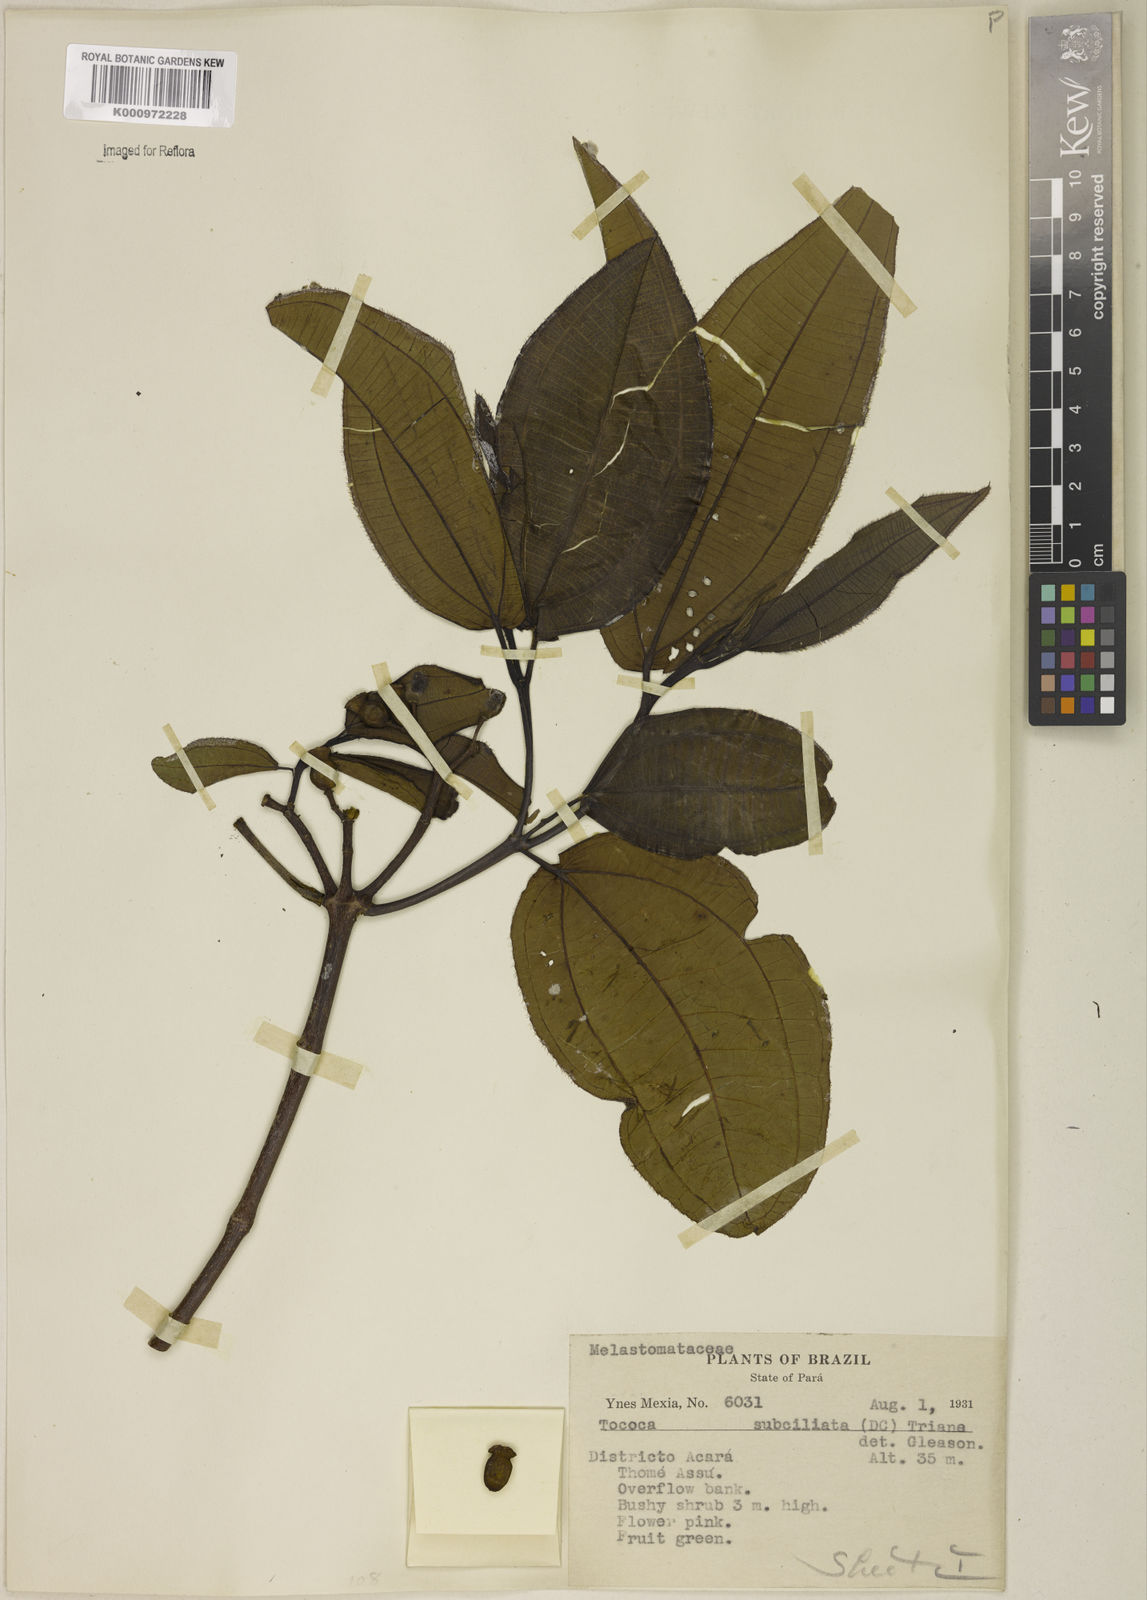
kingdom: Plantae
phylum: Tracheophyta
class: Magnoliopsida
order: Myrtales
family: Melastomataceae
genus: Miconia
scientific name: Miconia subciliata
